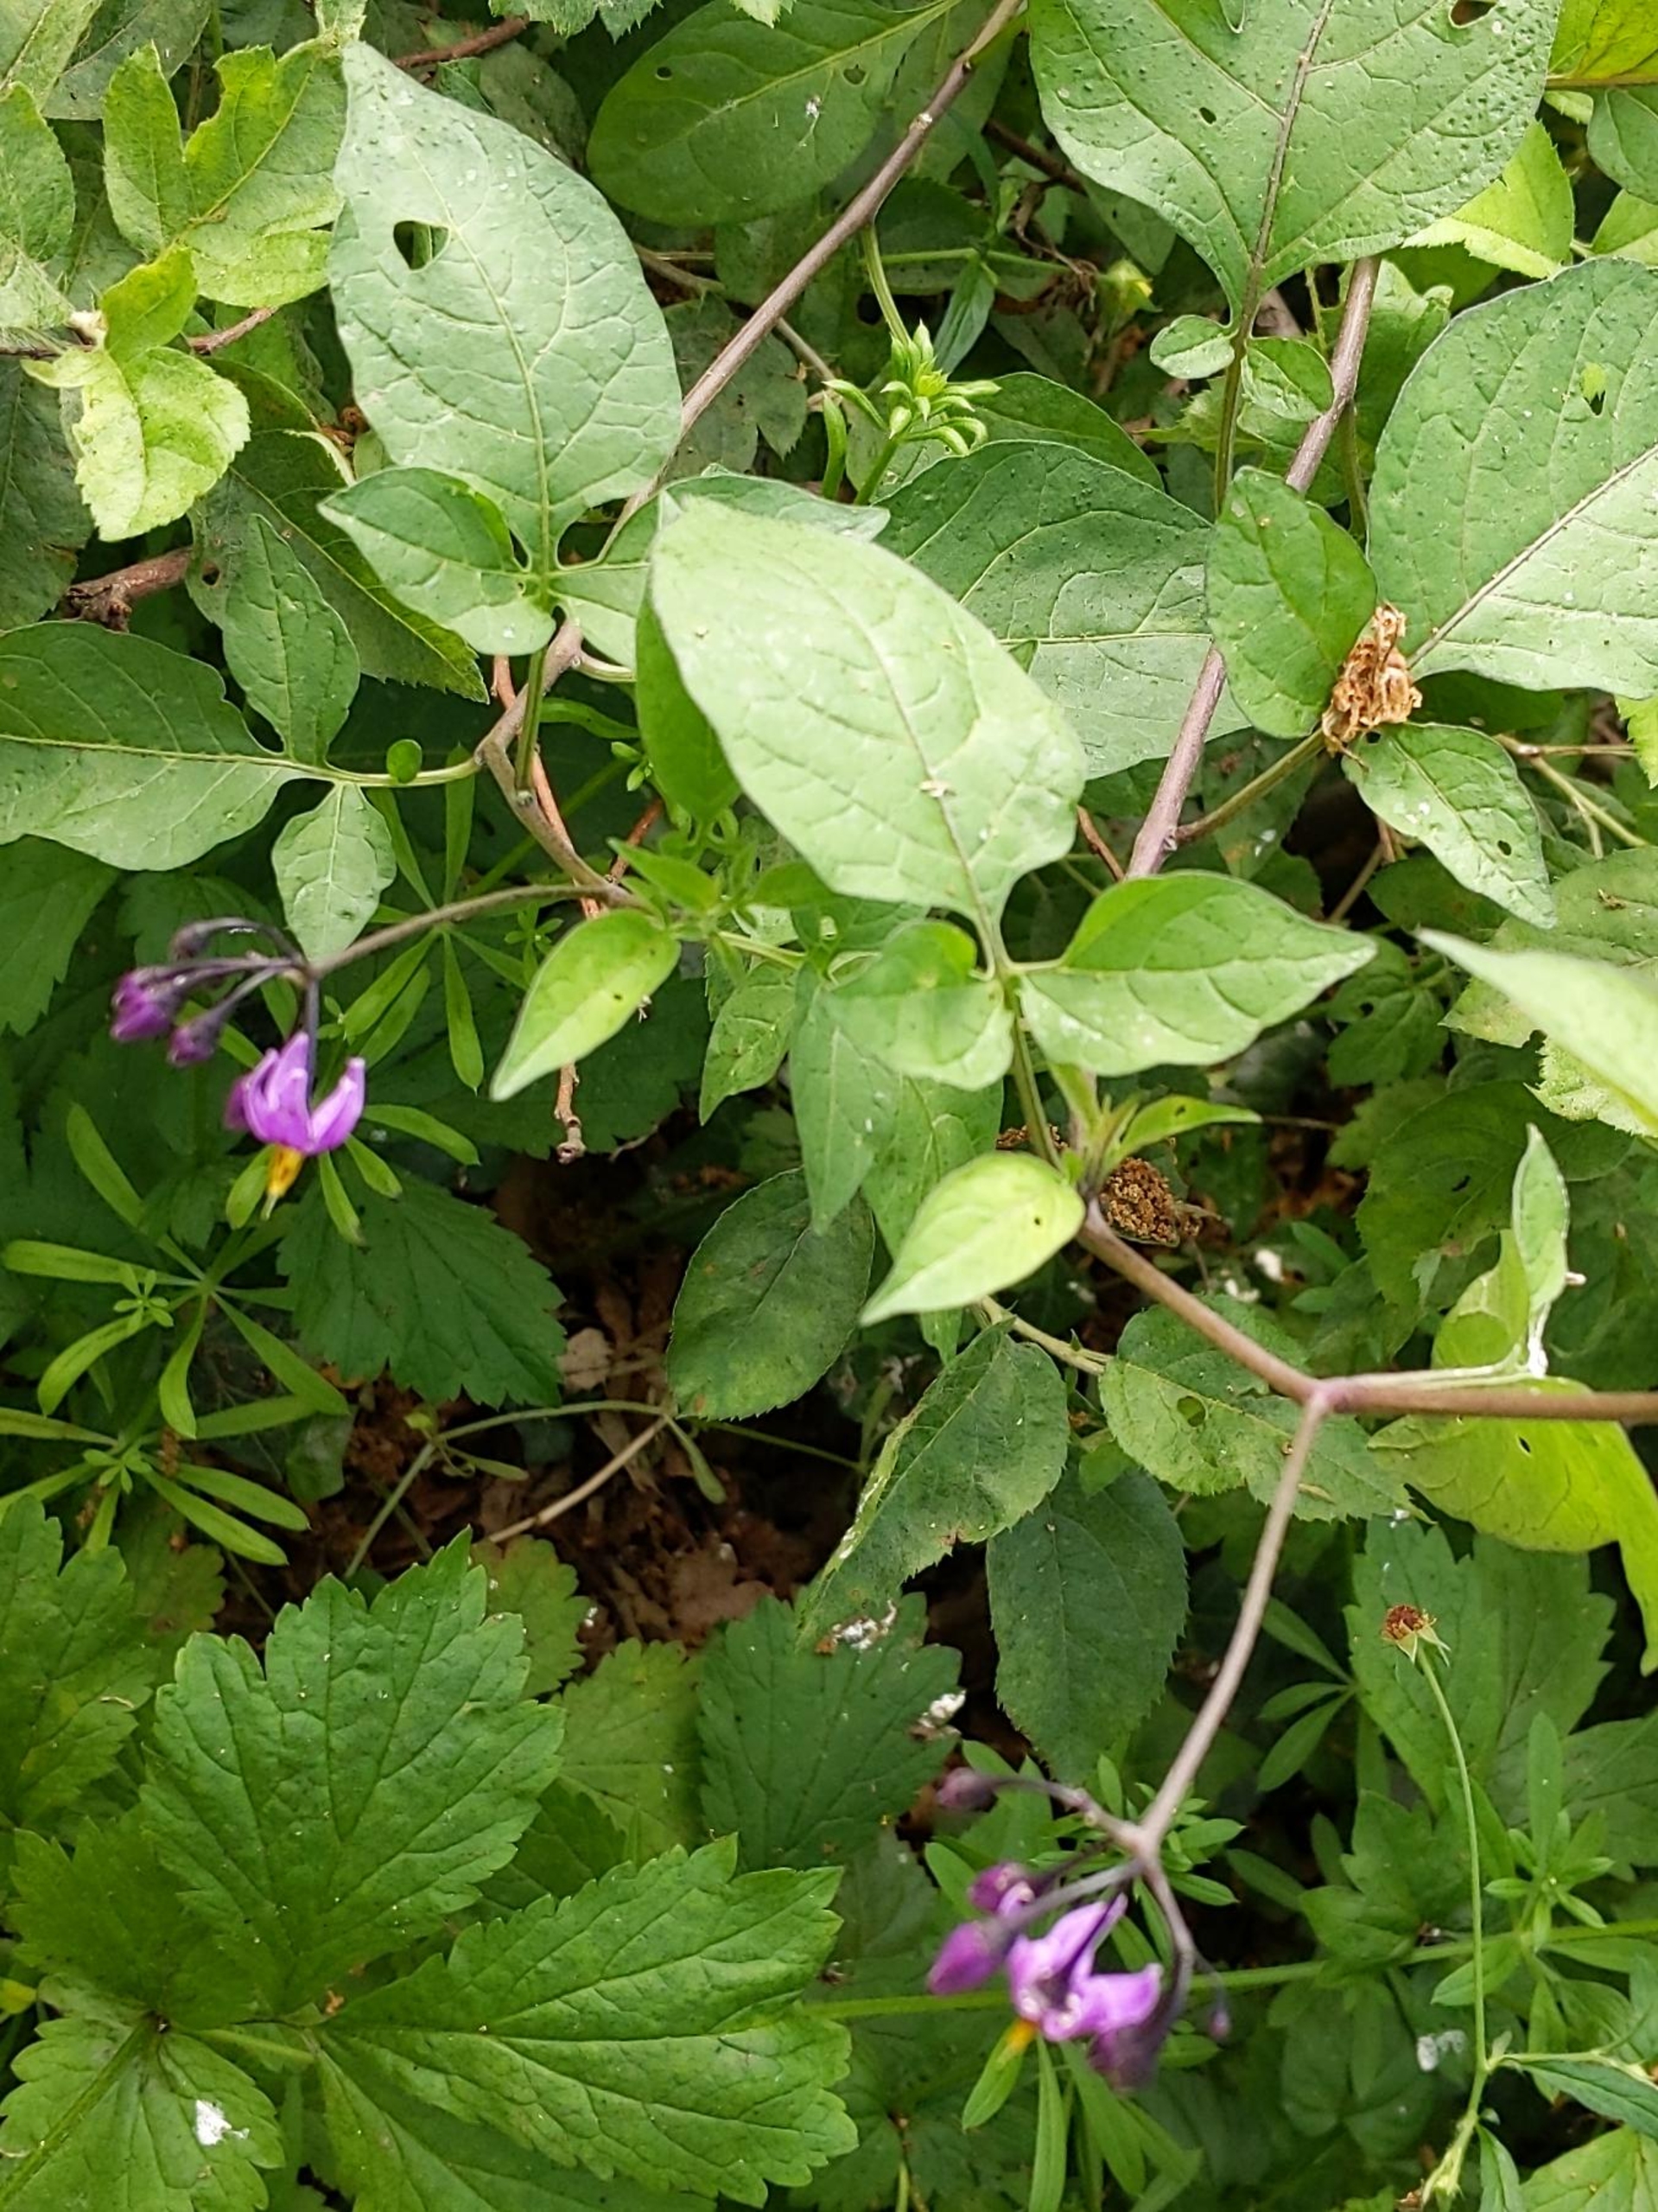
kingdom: Plantae
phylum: Tracheophyta
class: Magnoliopsida
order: Solanales
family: Solanaceae
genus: Solanum
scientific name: Solanum dulcamara
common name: Bittersød natskygge
